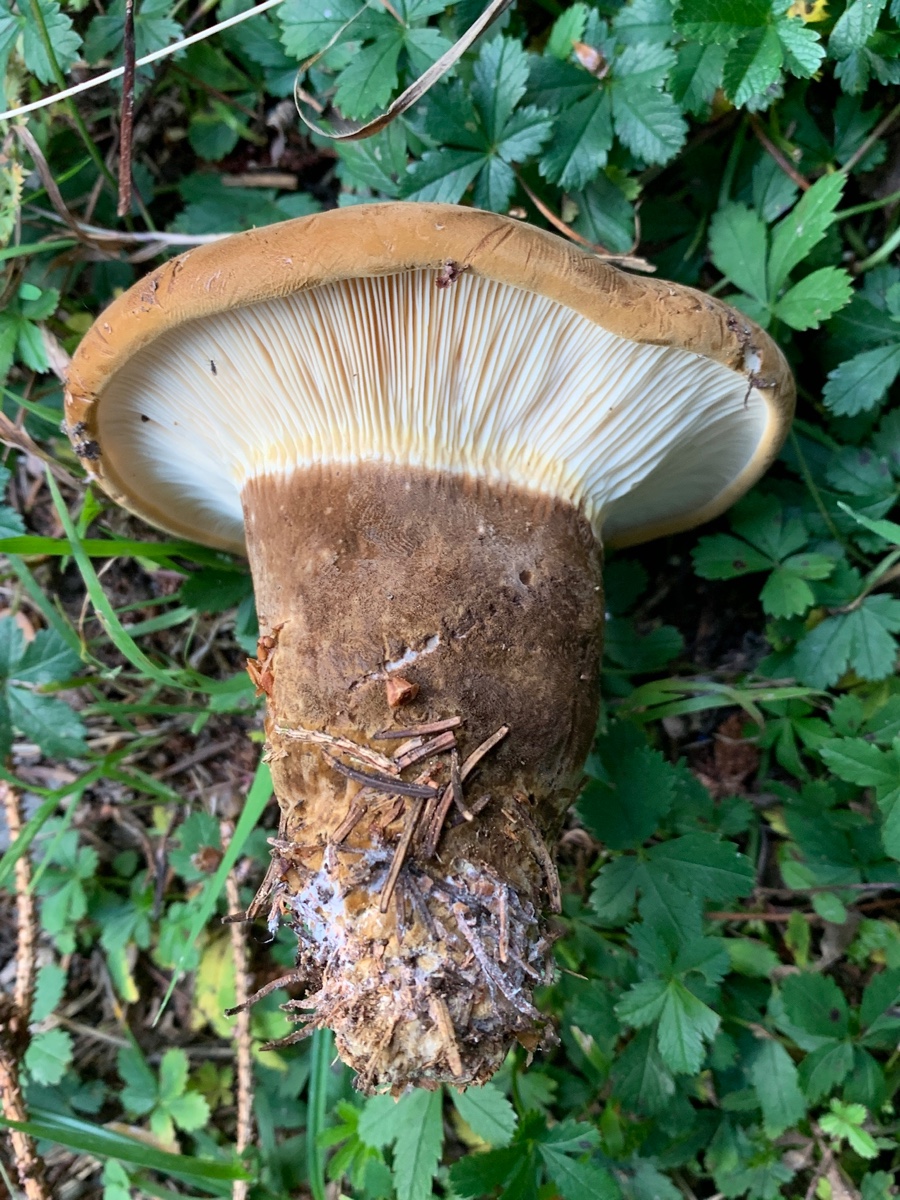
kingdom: Fungi
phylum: Basidiomycota
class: Agaricomycetes
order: Boletales
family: Tapinellaceae
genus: Tapinella
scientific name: Tapinella atrotomentosa
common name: sortfiltet viftesvamp
